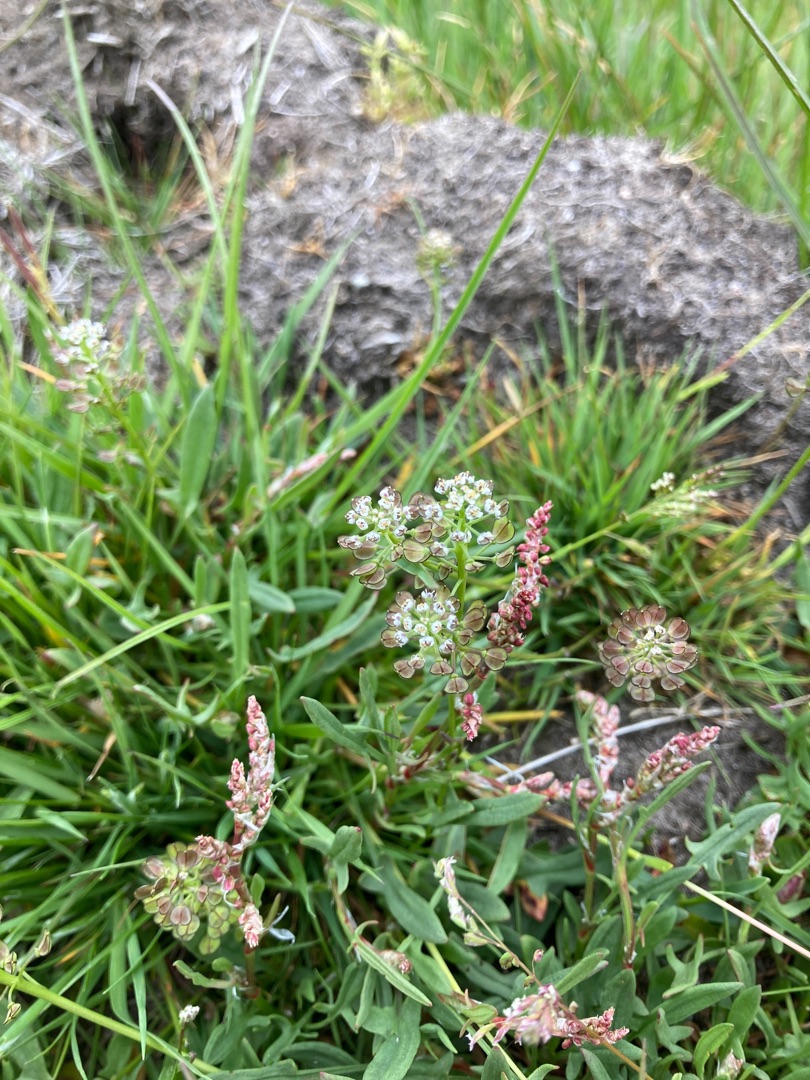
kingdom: Plantae
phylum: Tracheophyta
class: Magnoliopsida
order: Brassicales
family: Brassicaceae
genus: Teesdalia
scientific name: Teesdalia nudicaulis
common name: Flipkrave
